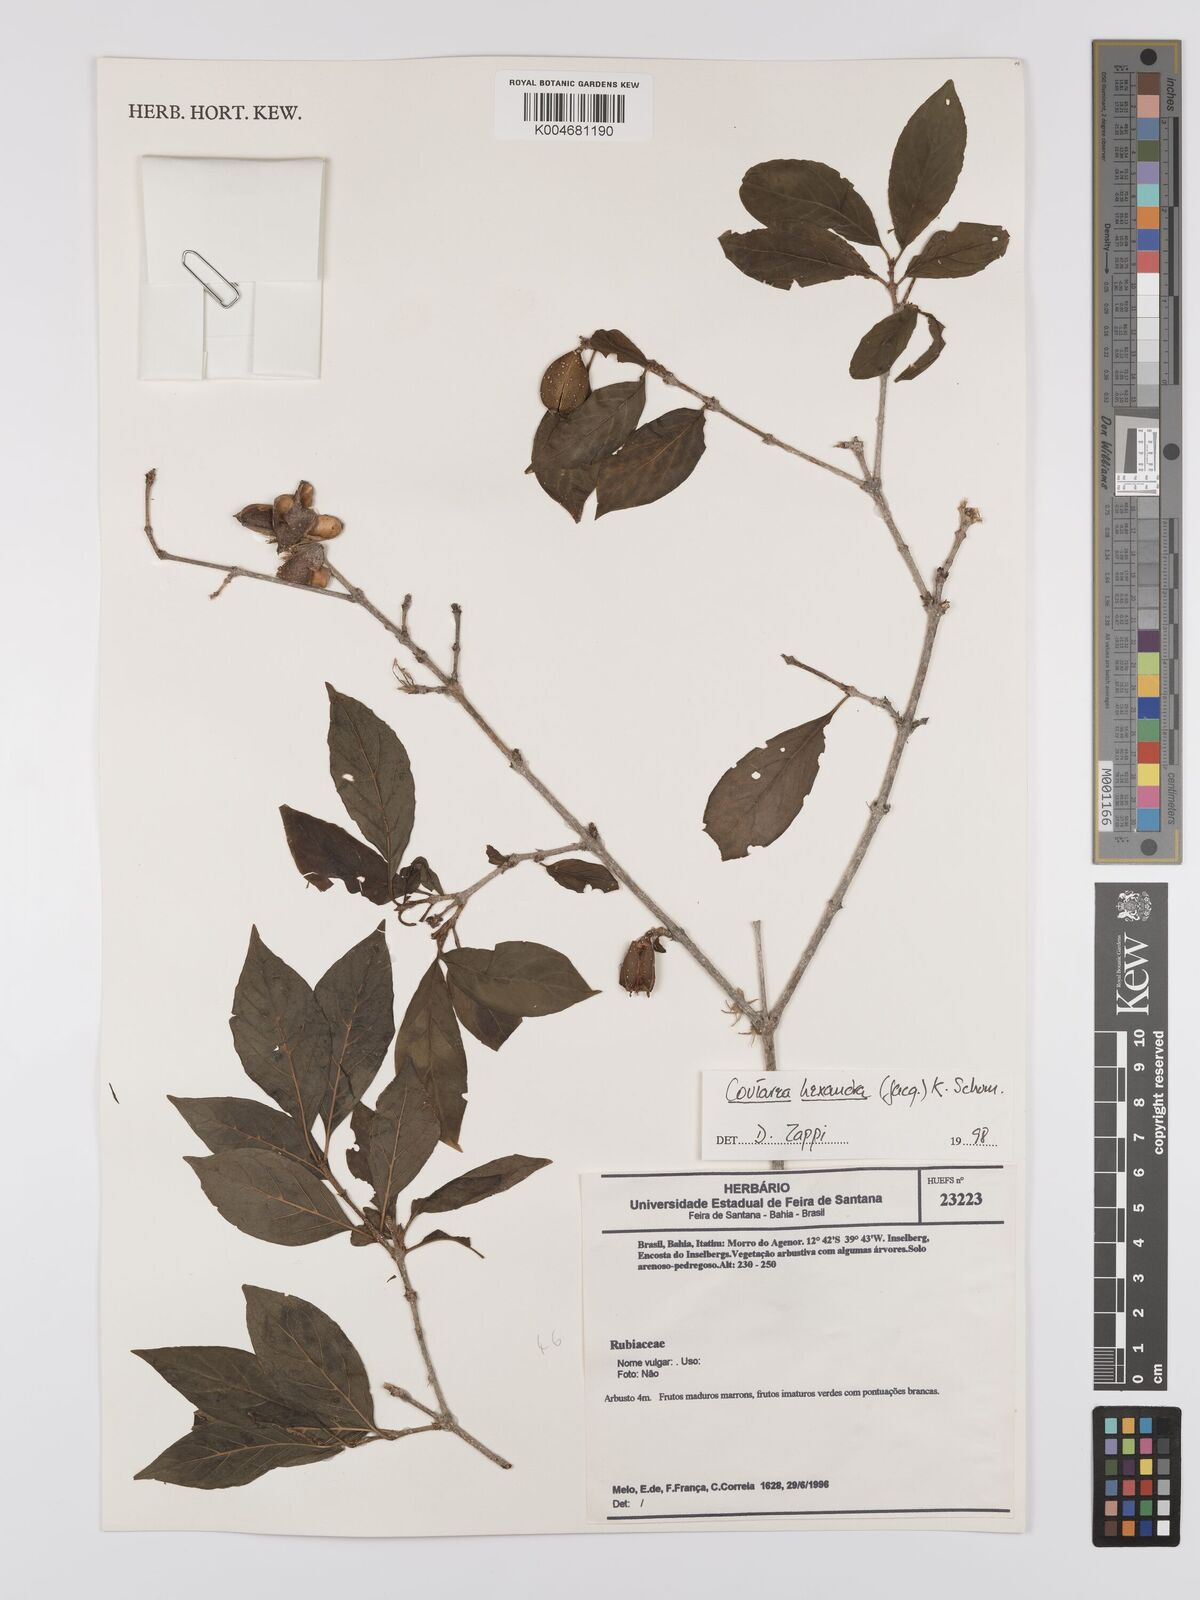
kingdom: Plantae
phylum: Tracheophyta
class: Magnoliopsida
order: Gentianales
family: Rubiaceae
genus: Coutarea
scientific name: Coutarea hexandra
